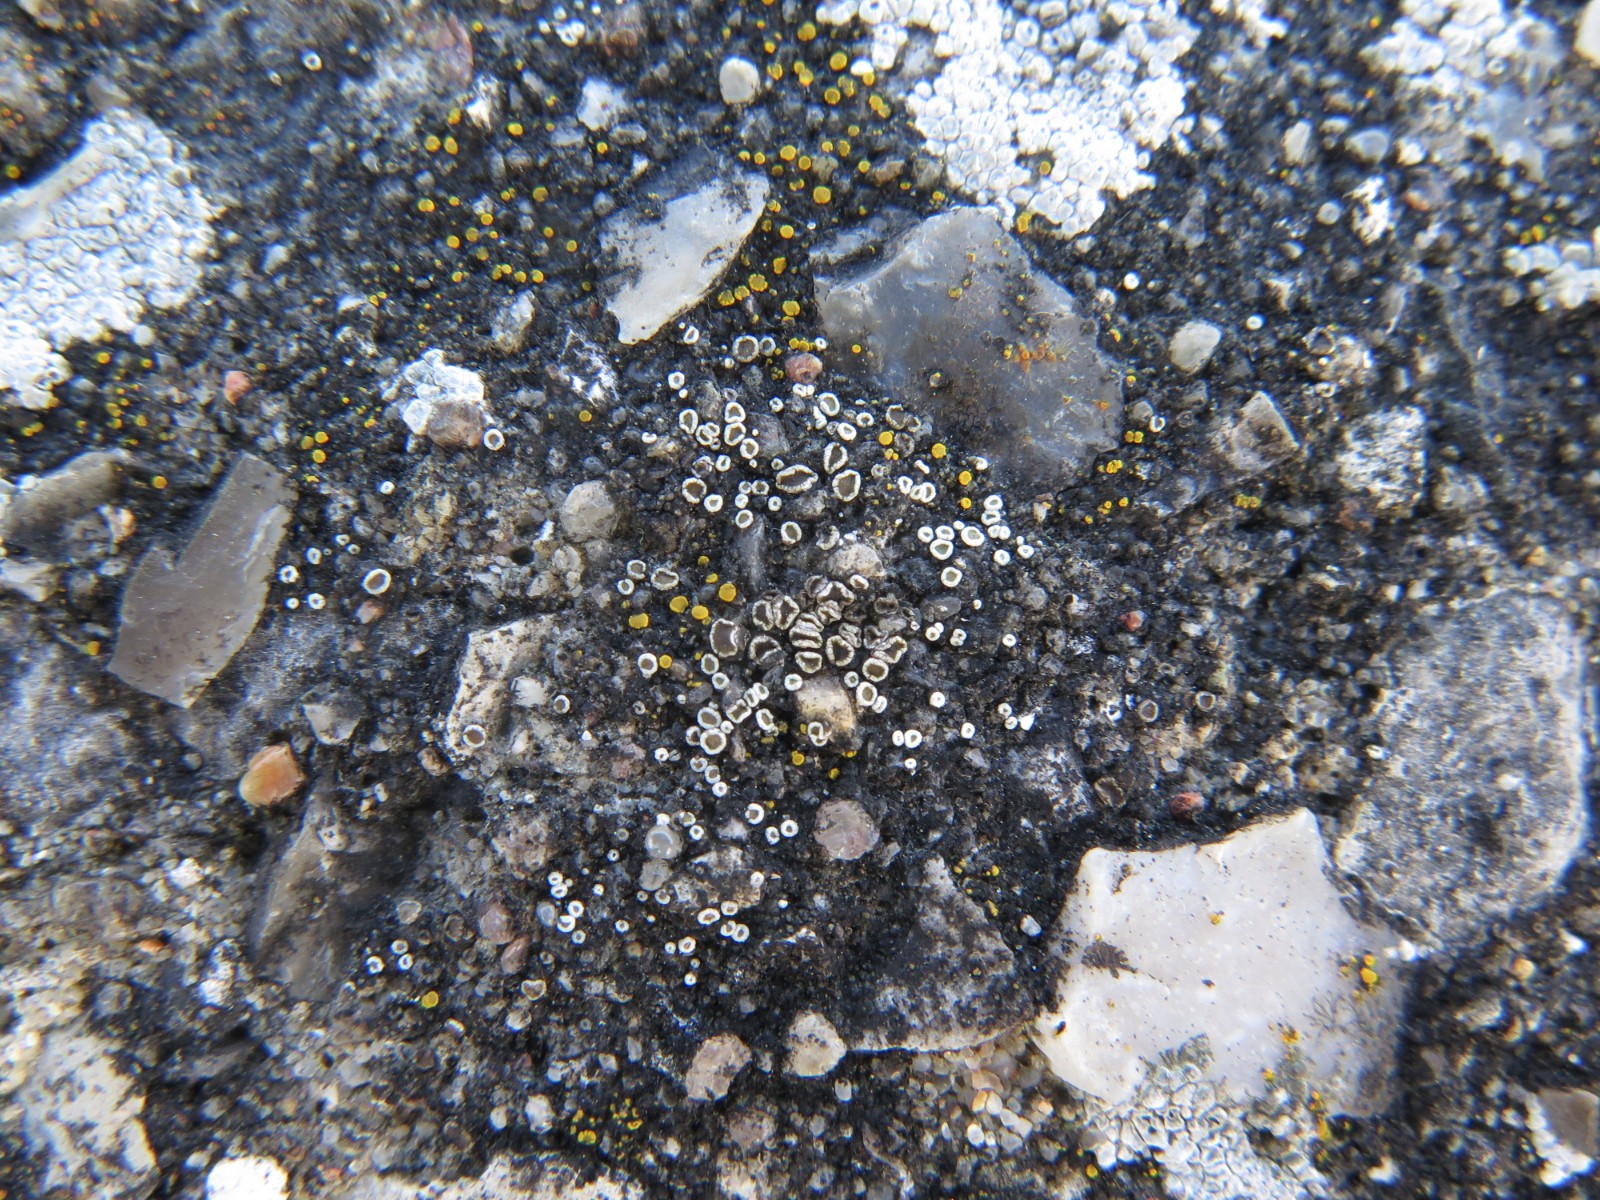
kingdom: Fungi
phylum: Ascomycota
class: Lecanoromycetes
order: Lecanorales
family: Lecanoraceae
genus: Polyozosia
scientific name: Polyozosia dispersa
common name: spredt kantskivelav
